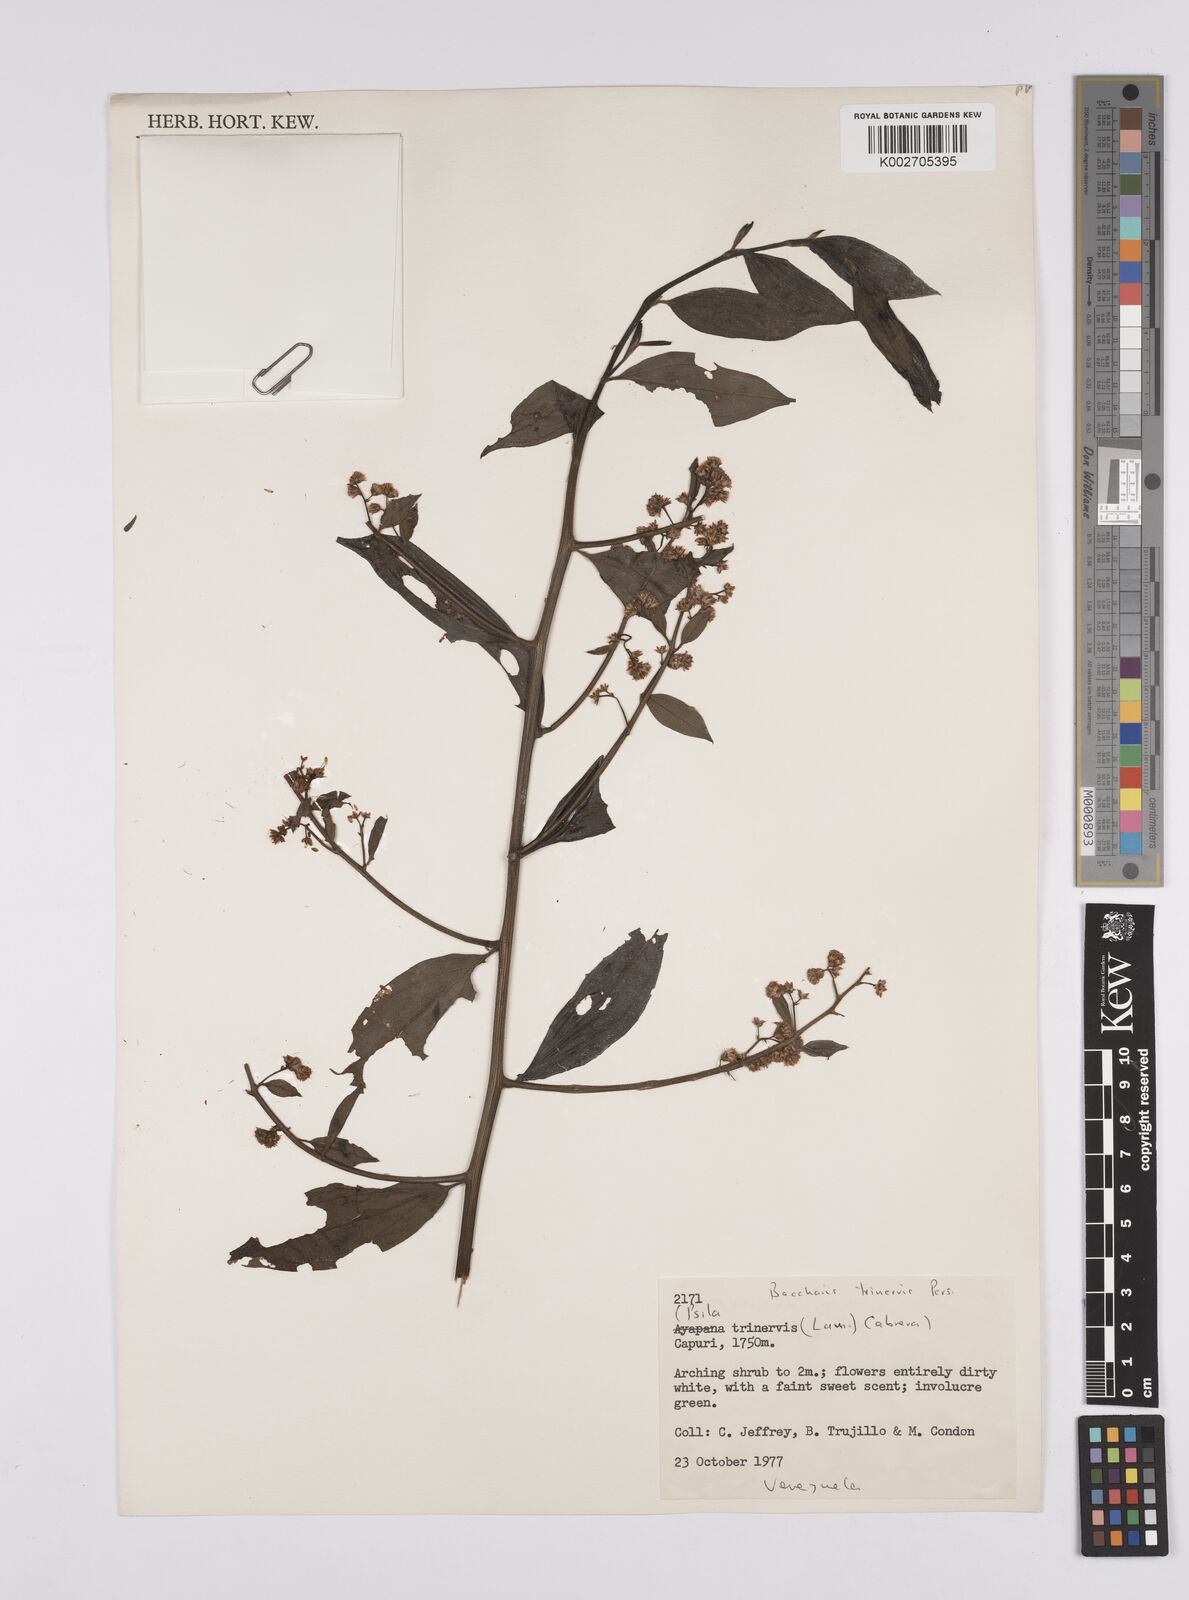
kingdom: Plantae
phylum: Tracheophyta
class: Magnoliopsida
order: Asterales
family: Asteraceae
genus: Baccharis
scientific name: Baccharis trinervis
